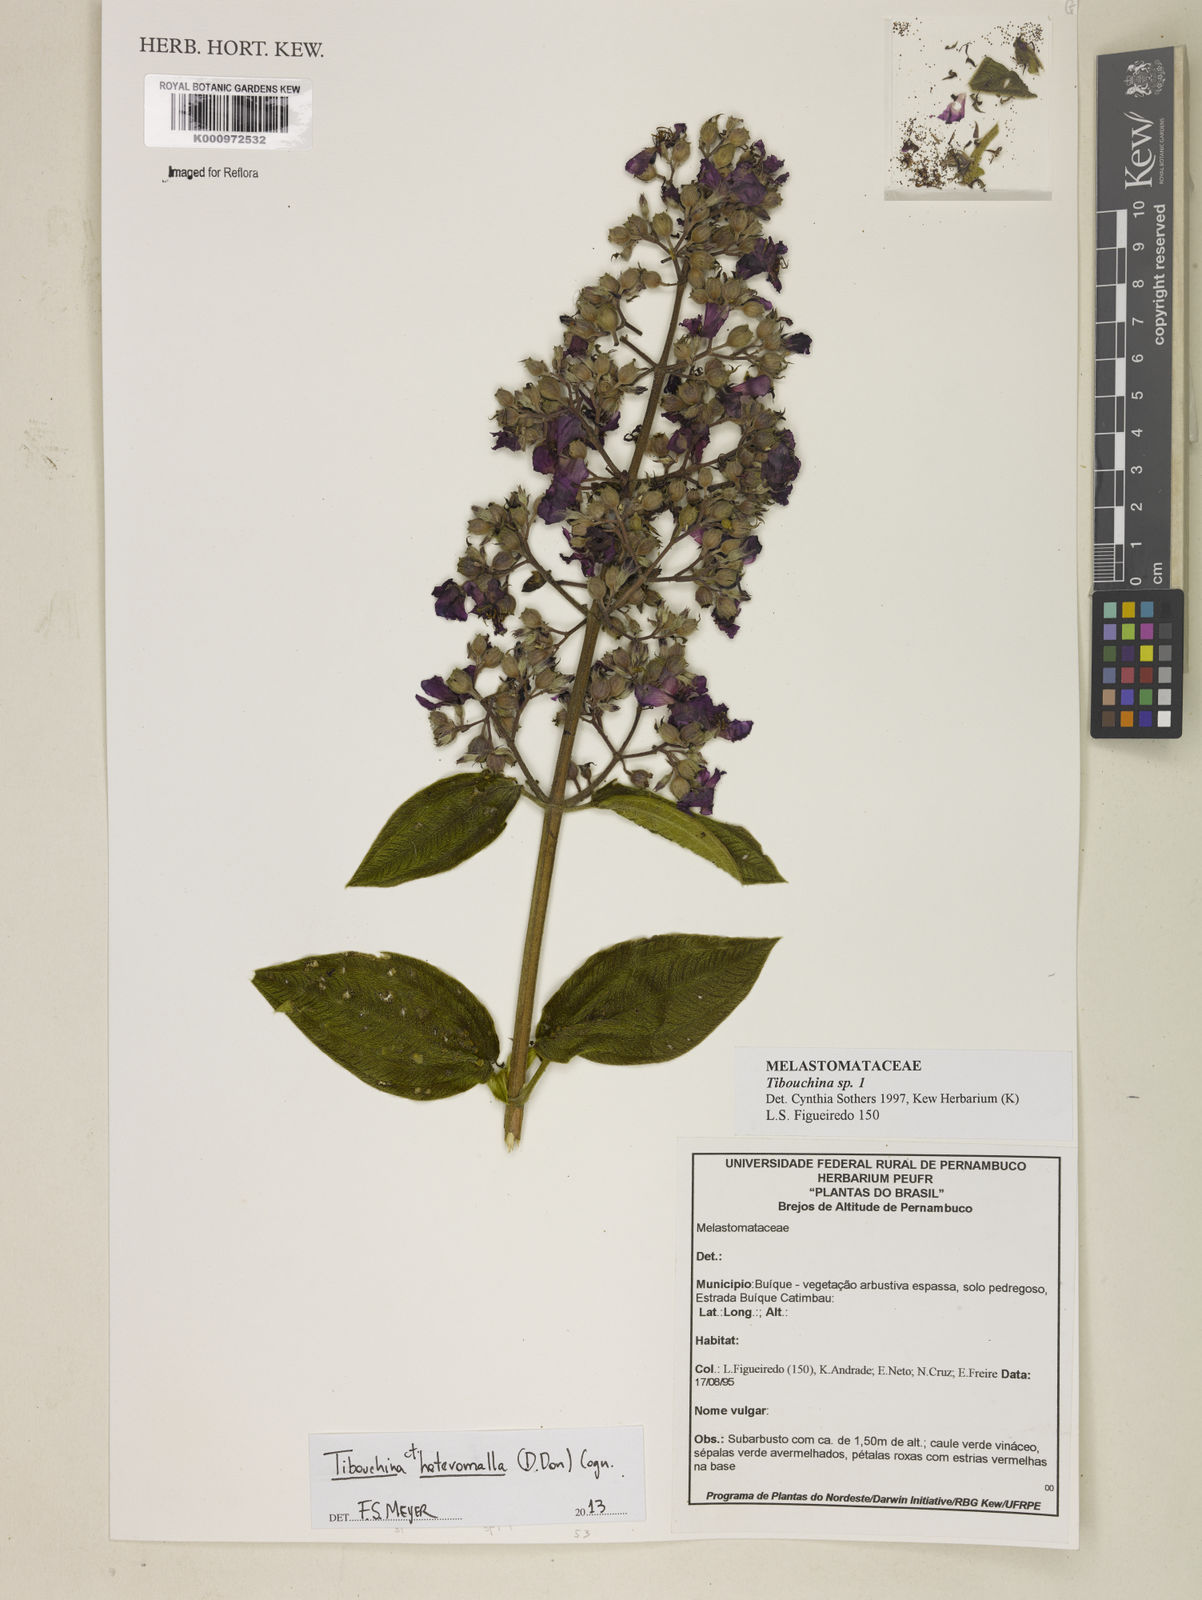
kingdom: Plantae
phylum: Tracheophyta
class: Magnoliopsida
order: Myrtales
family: Melastomataceae
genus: Pleroma
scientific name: Pleroma heteromallum
